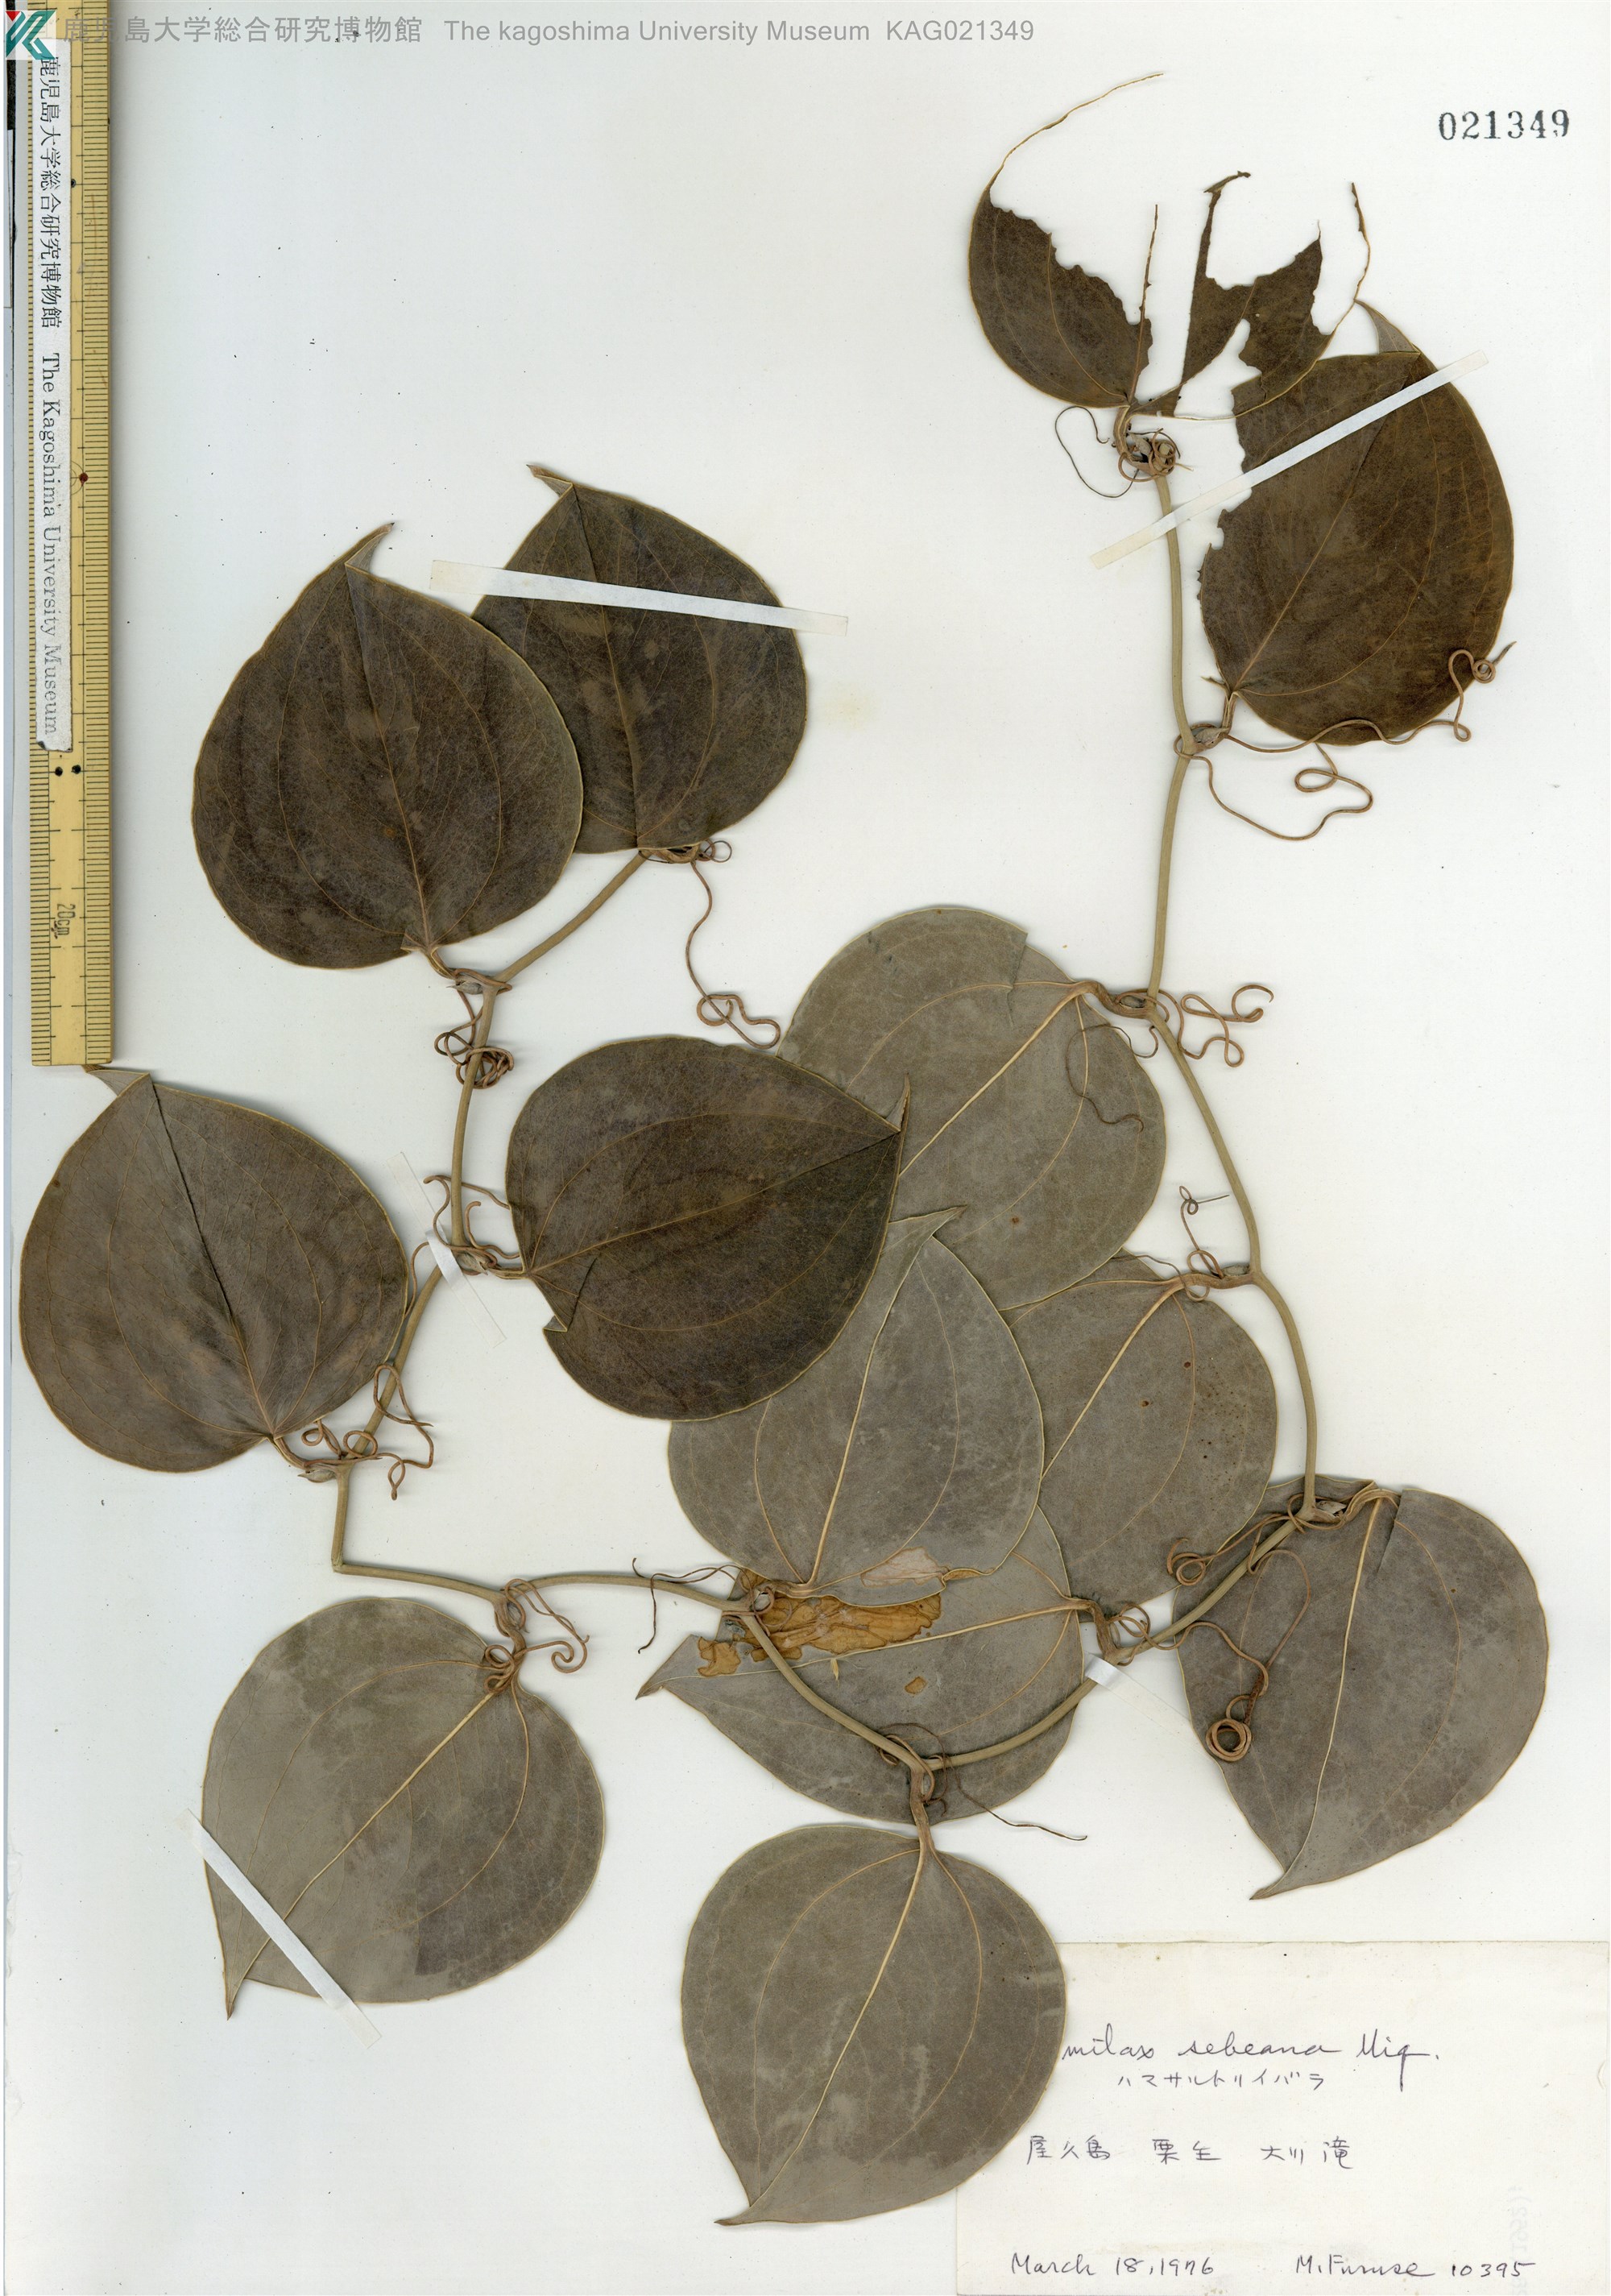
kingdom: Plantae
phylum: Tracheophyta
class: Liliopsida
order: Liliales
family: Smilacaceae
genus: Smilax
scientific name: Smilax sebeana
